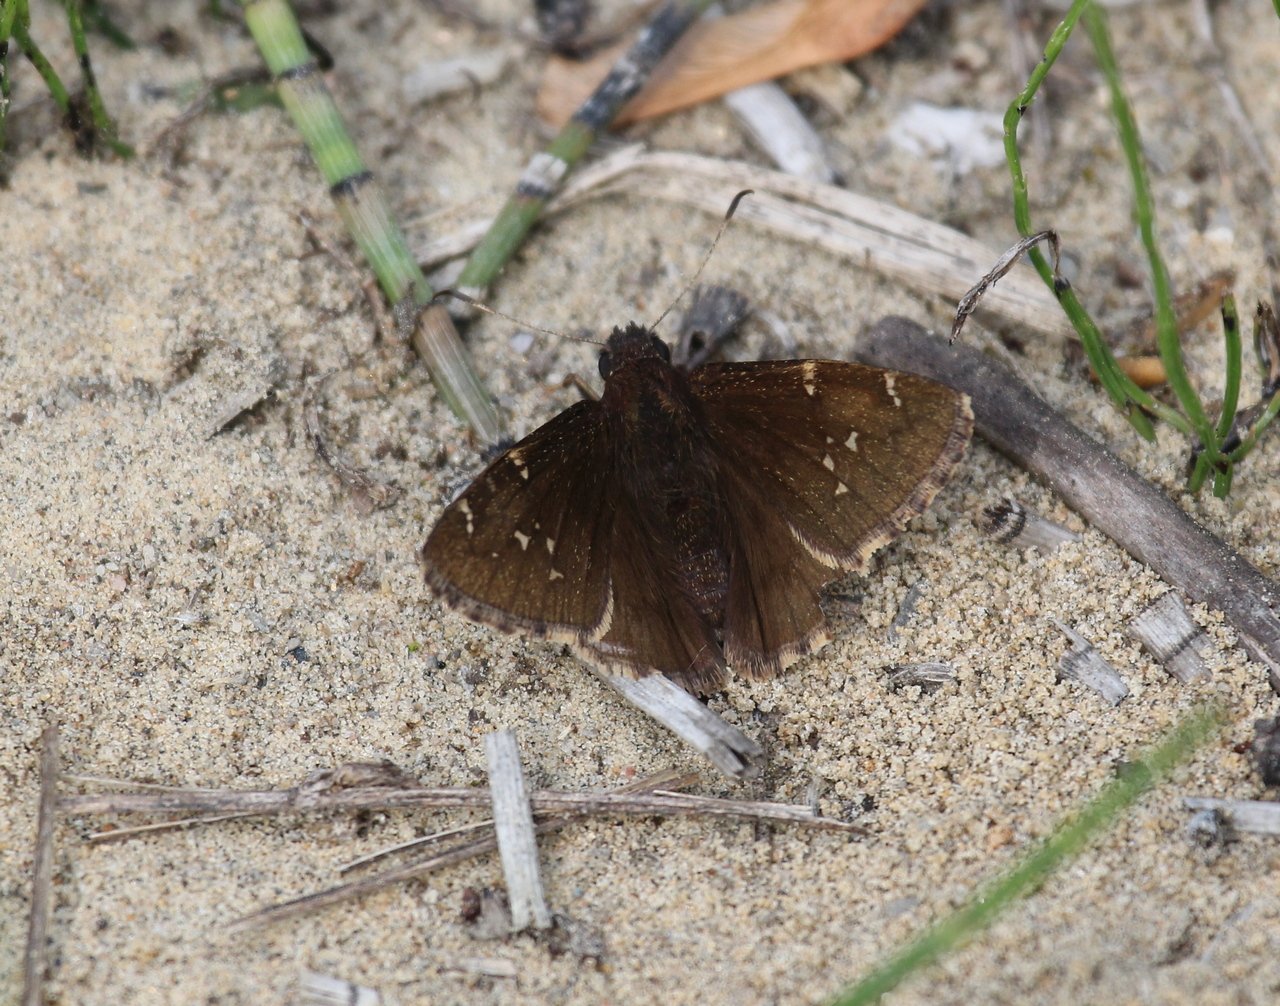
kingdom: Animalia
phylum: Arthropoda
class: Insecta
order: Lepidoptera
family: Hesperiidae
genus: Autochton
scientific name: Autochton
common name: Northern Cloudywing
